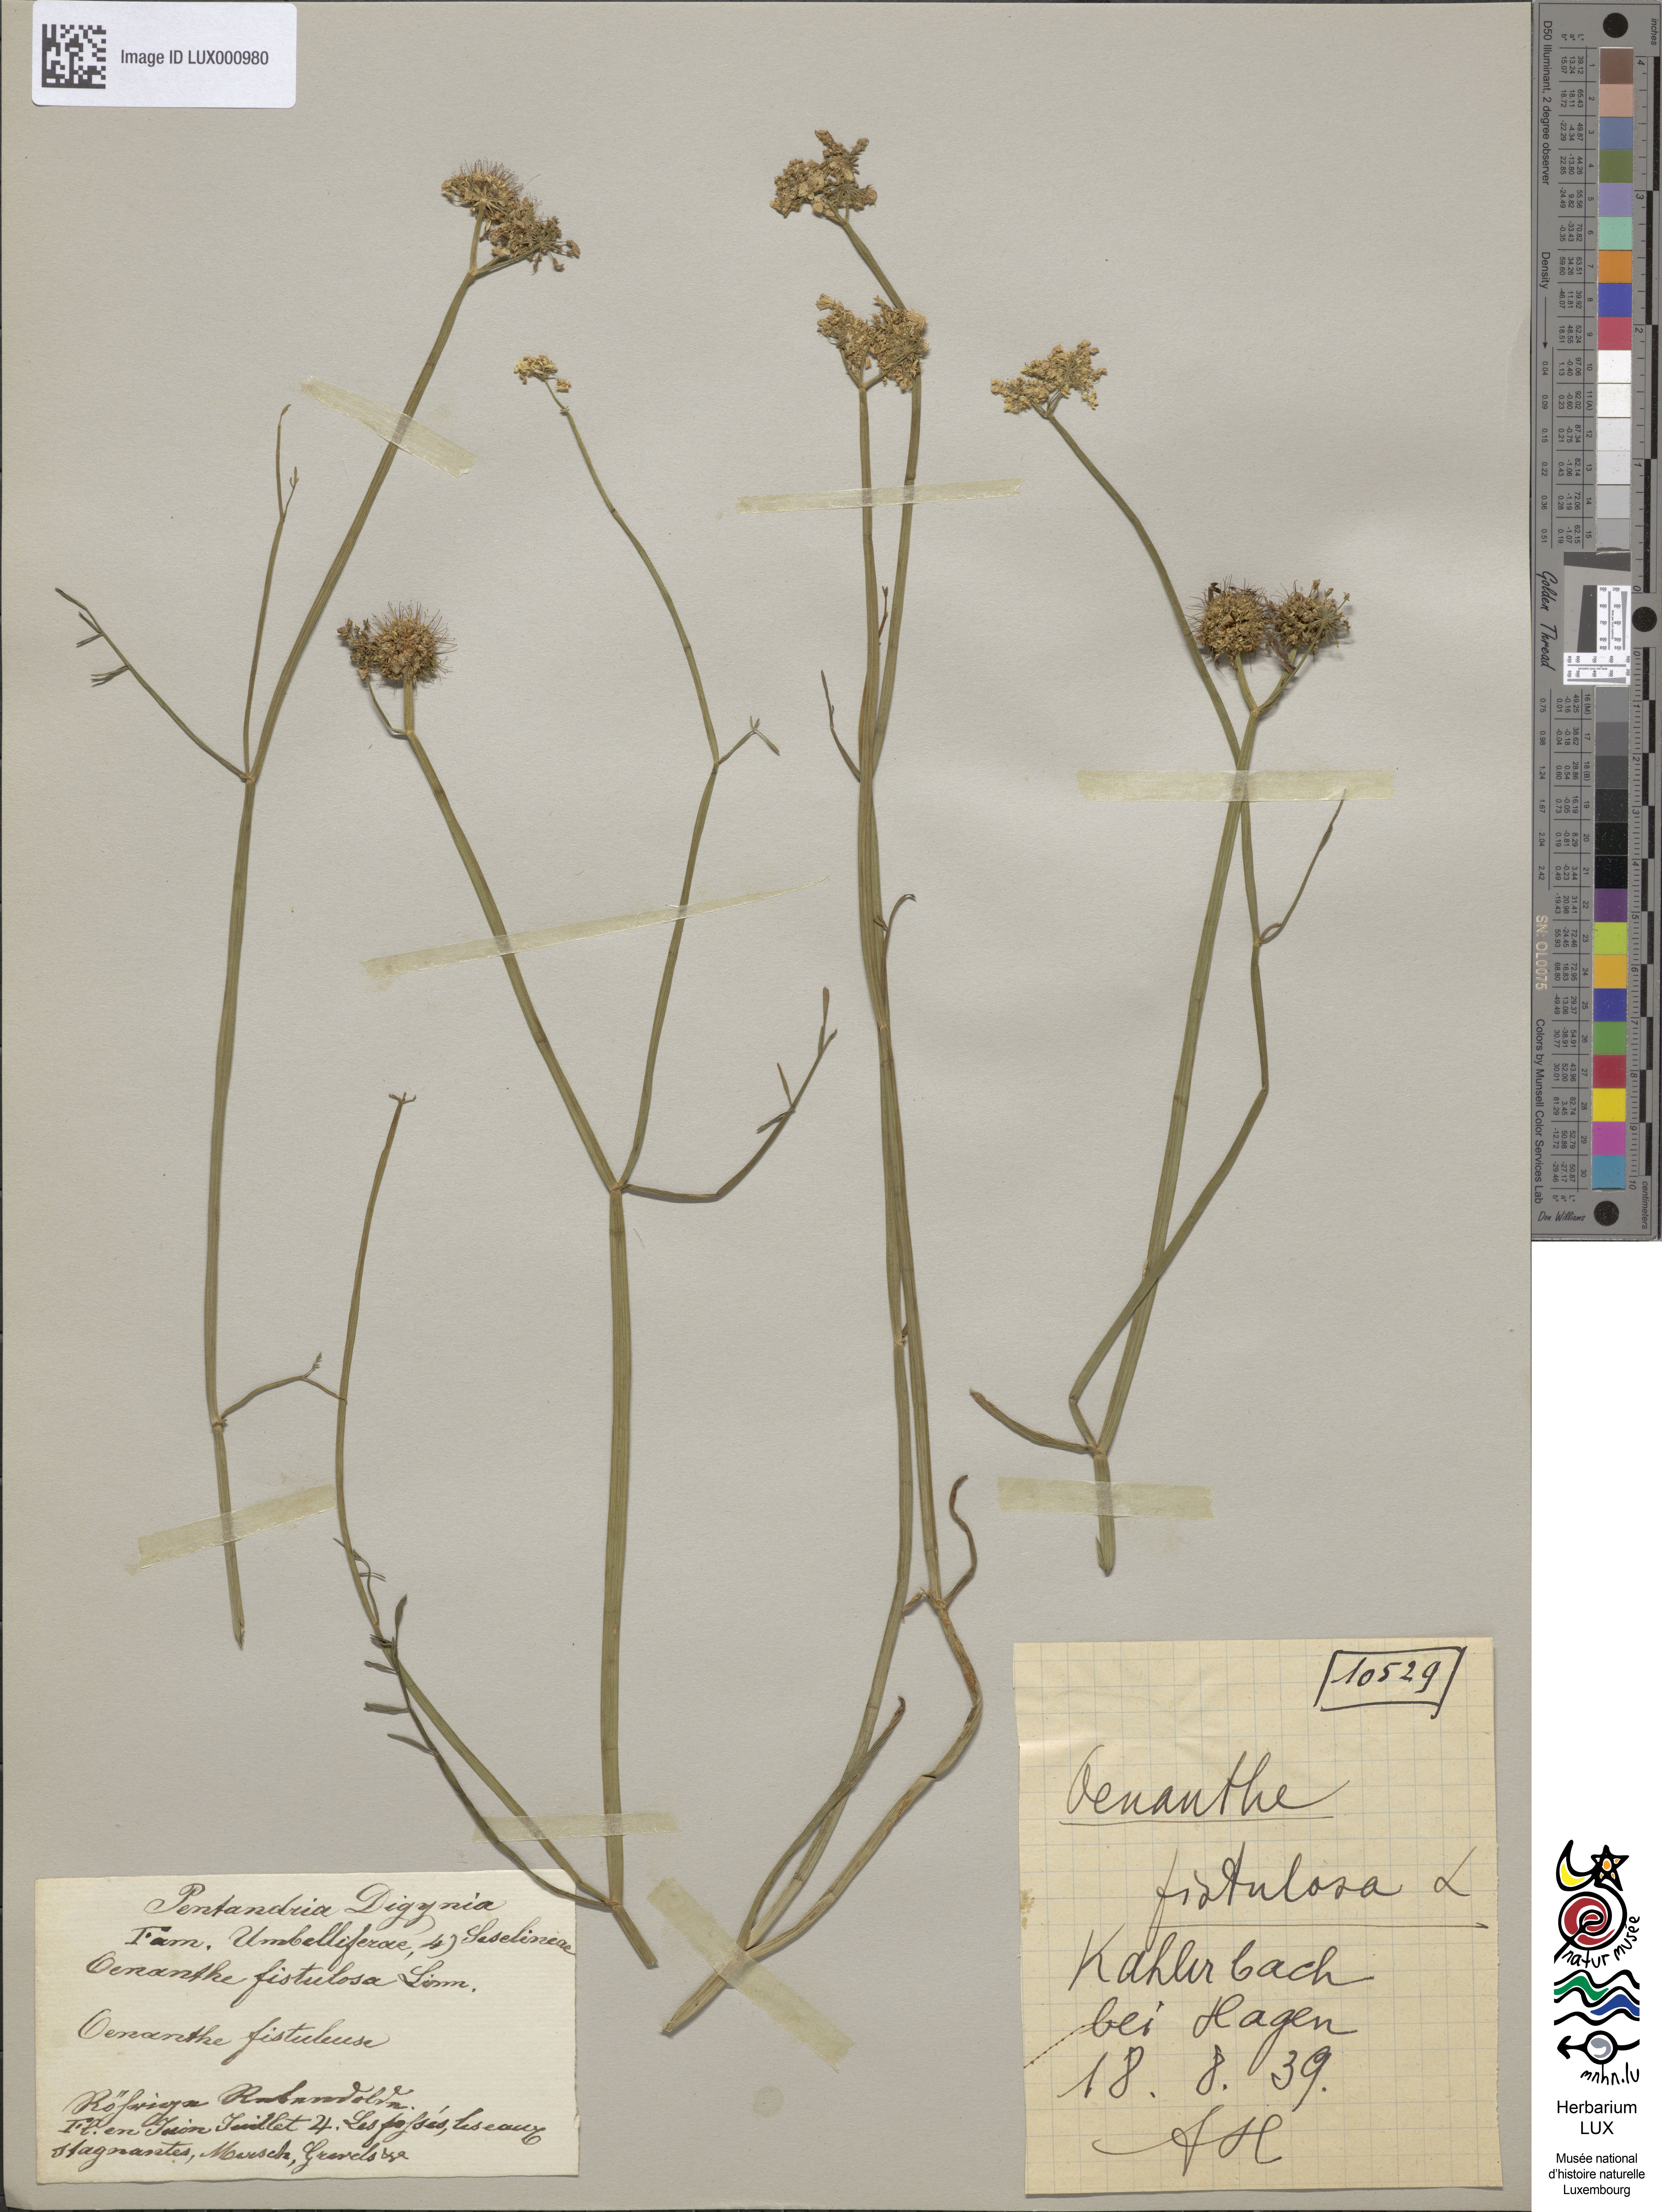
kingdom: Plantae
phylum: Tracheophyta
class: Magnoliopsida
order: Apiales
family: Apiaceae
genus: Oenanthe
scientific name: Oenanthe fistulosa
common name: Tubular water-dropwort
